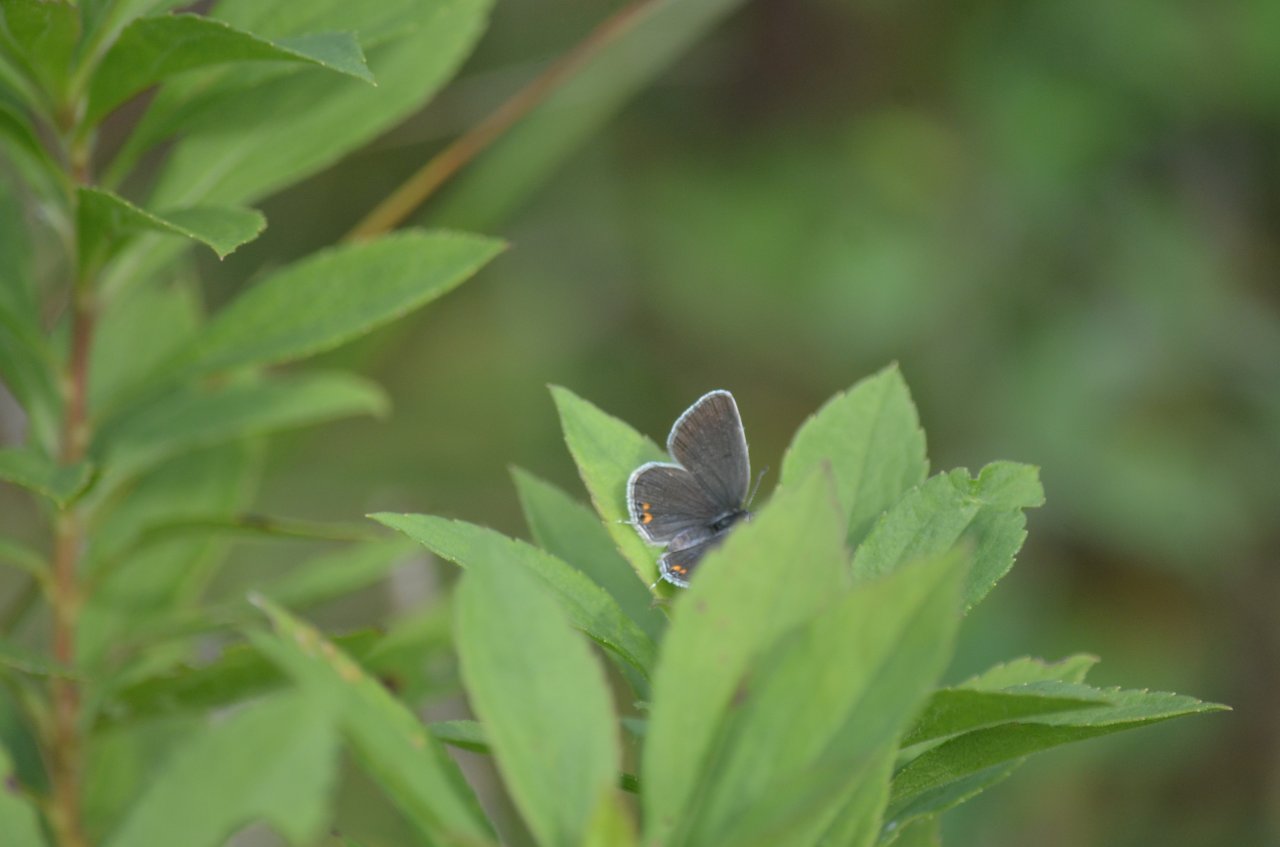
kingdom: Animalia
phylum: Arthropoda
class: Insecta
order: Lepidoptera
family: Lycaenidae
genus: Elkalyce
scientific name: Elkalyce comyntas
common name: Eastern Tailed-Blue
